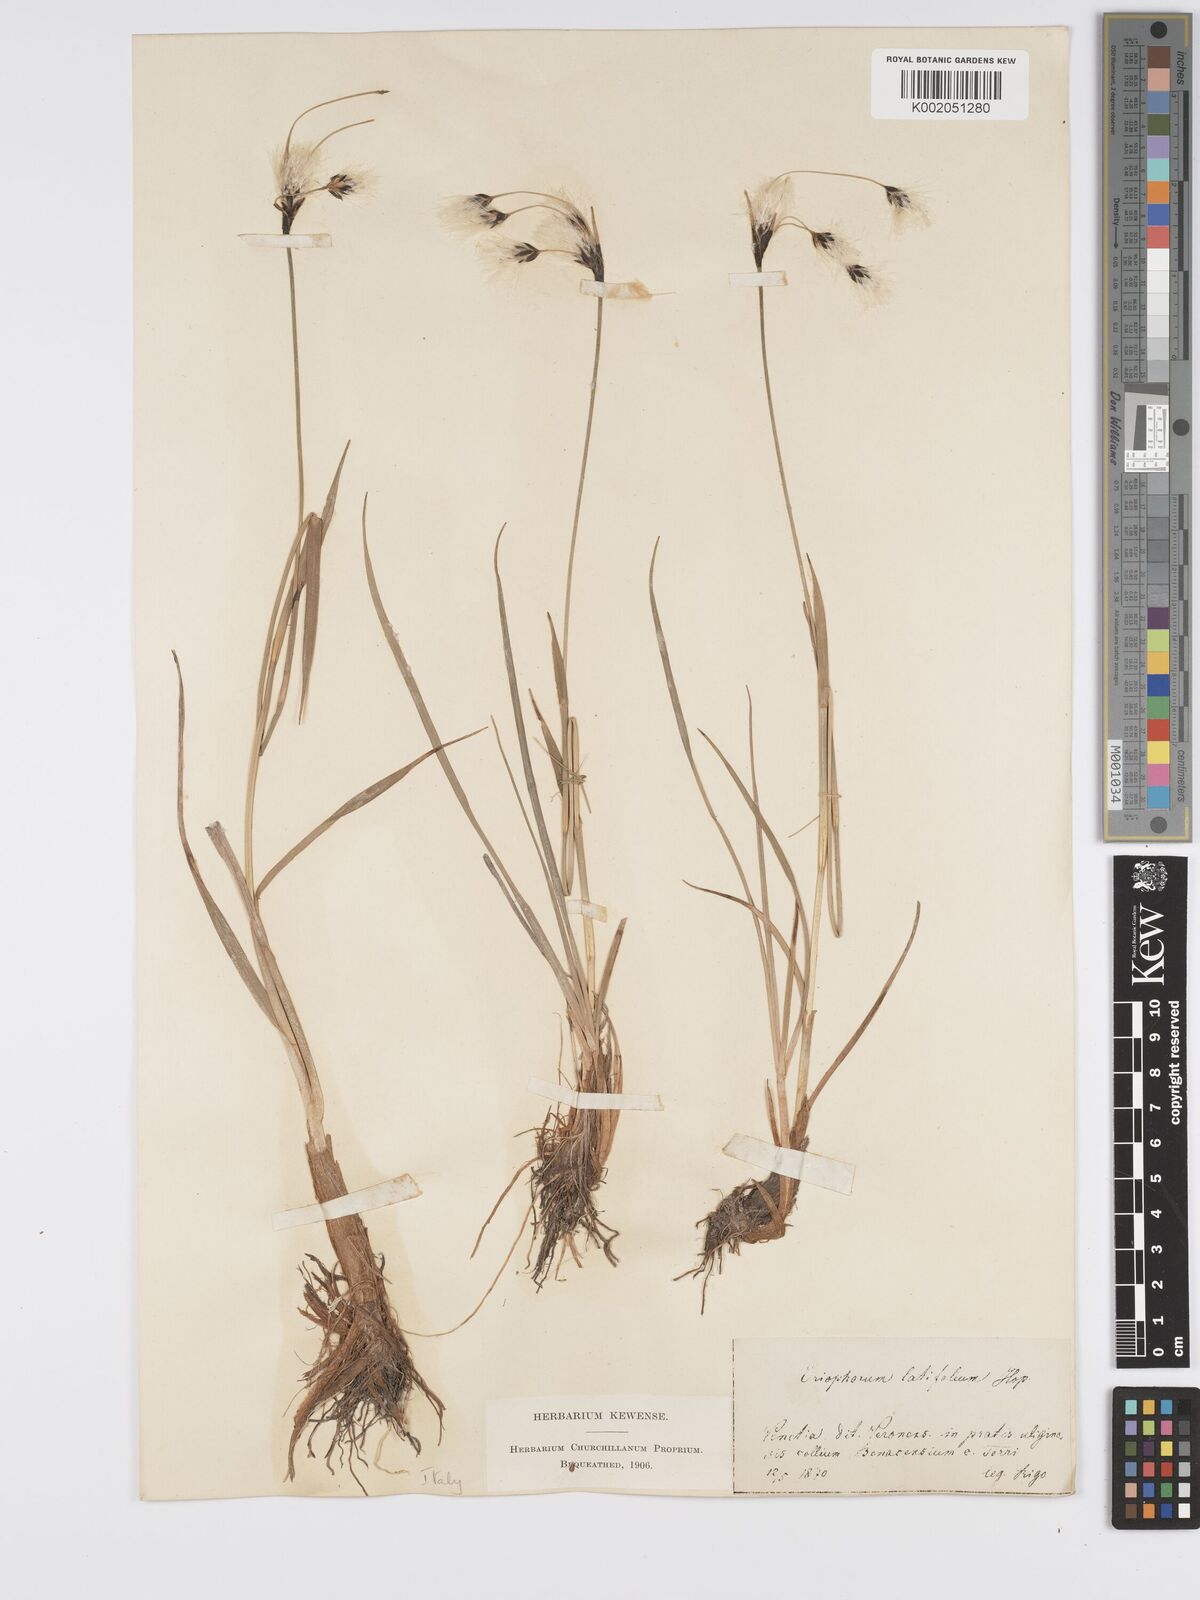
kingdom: Plantae
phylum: Tracheophyta
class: Liliopsida
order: Poales
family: Cyperaceae
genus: Eriophorum
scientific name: Eriophorum latifolium
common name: Broad-leaved cottongrass
